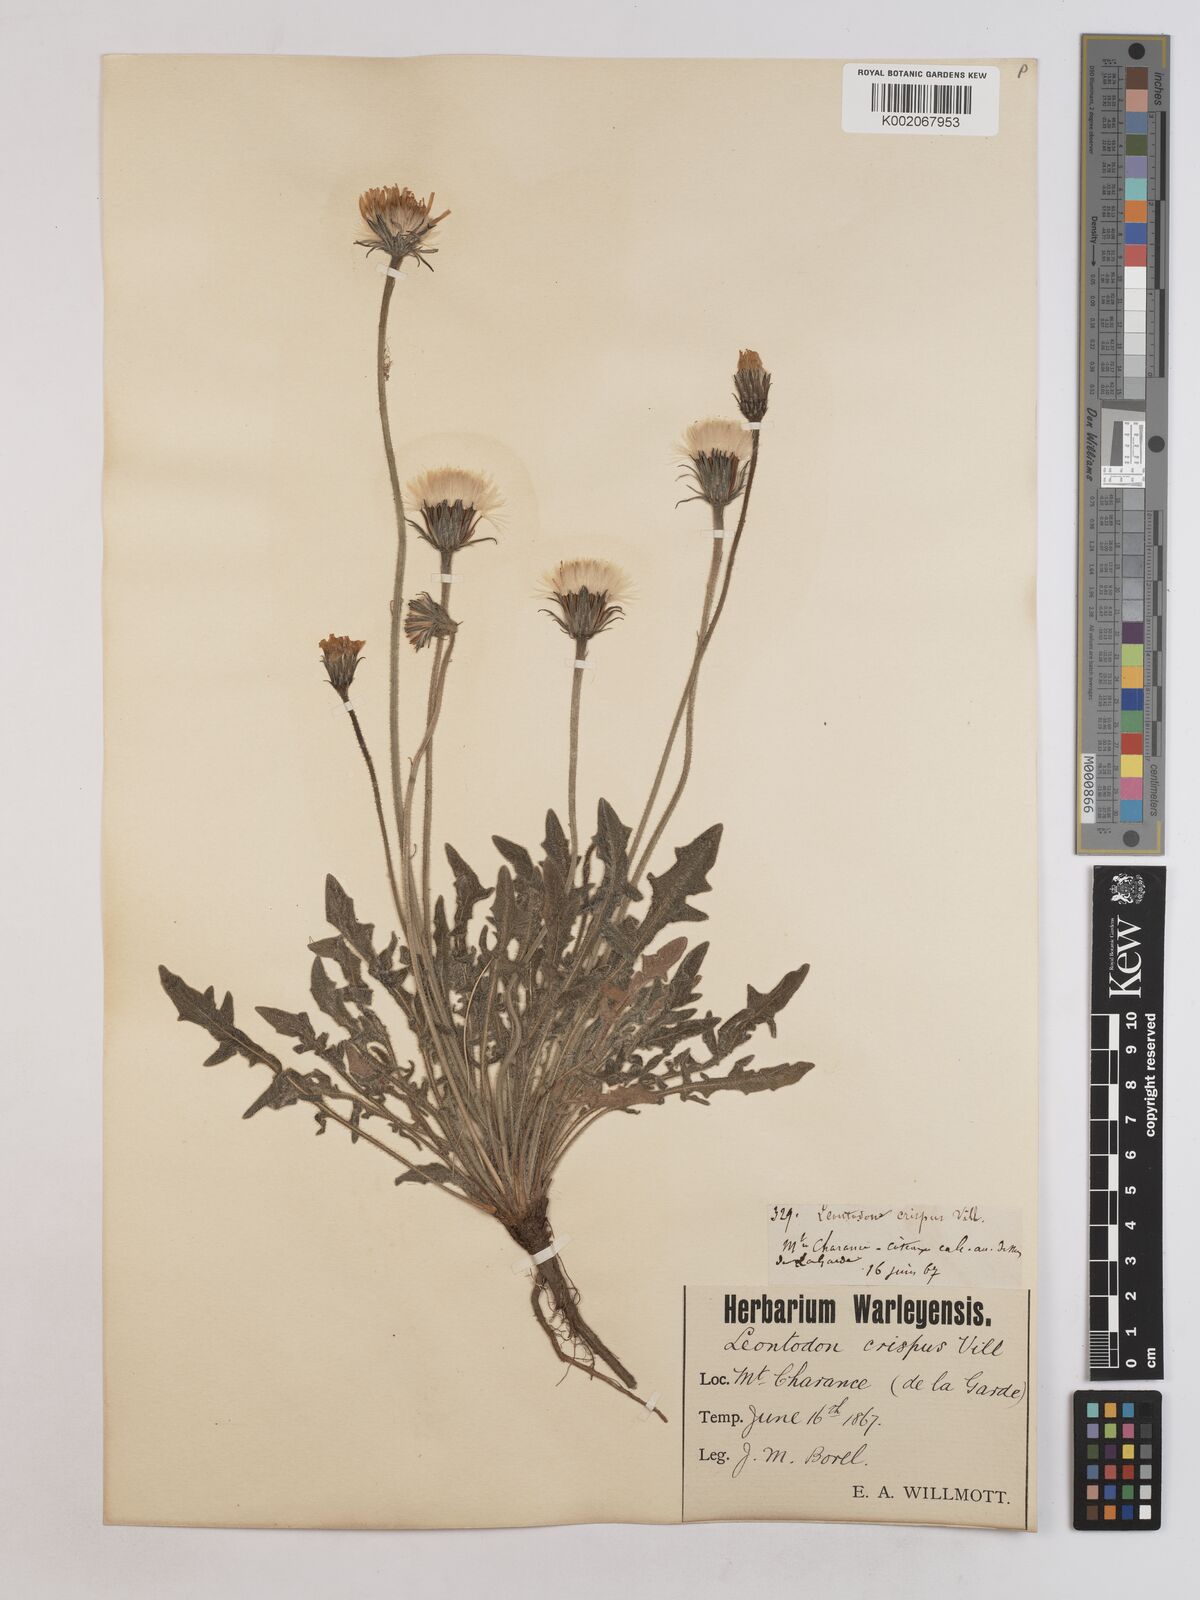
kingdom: Plantae
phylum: Tracheophyta
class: Magnoliopsida
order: Asterales
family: Asteraceae
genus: Leontodon
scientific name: Leontodon crispus
